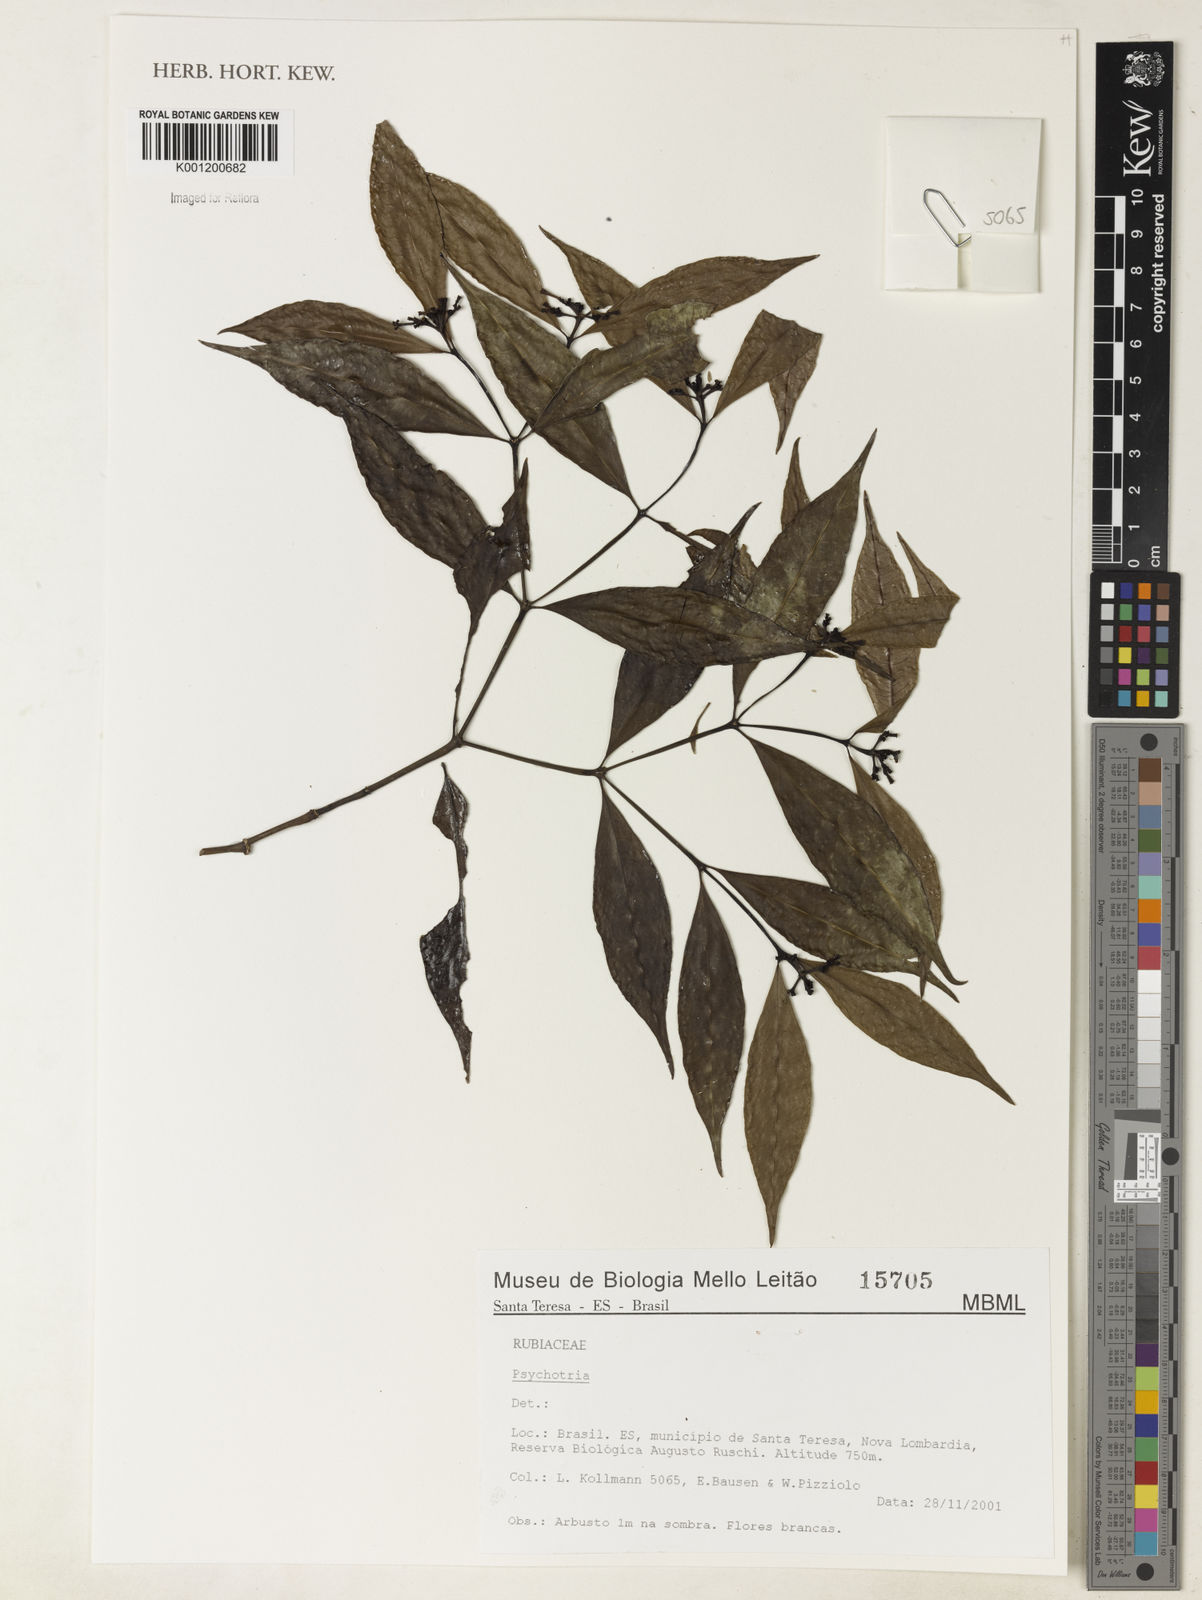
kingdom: Plantae
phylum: Tracheophyta
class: Magnoliopsida
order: Gentianales
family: Rubiaceae
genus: Psychotria
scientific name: Psychotria
